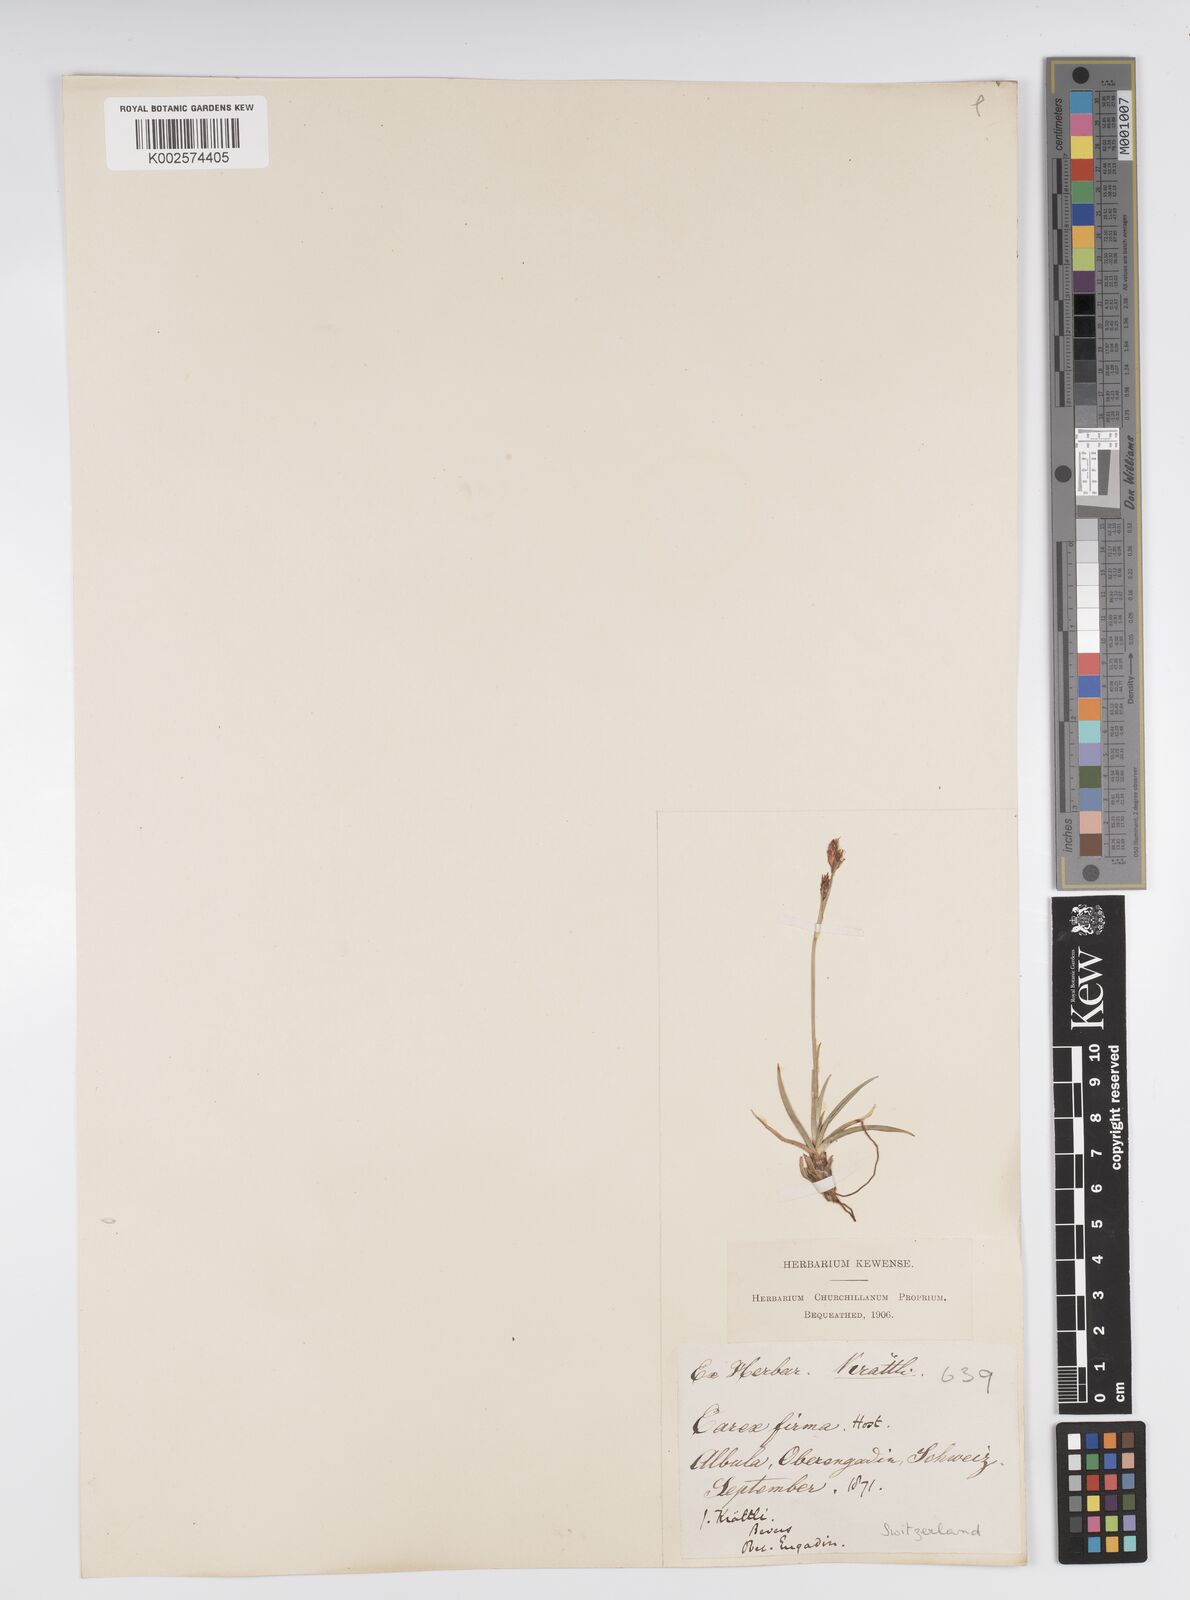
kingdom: Plantae
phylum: Tracheophyta
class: Liliopsida
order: Poales
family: Cyperaceae
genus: Carex
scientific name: Carex firma
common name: Dwarf pillow sedge
